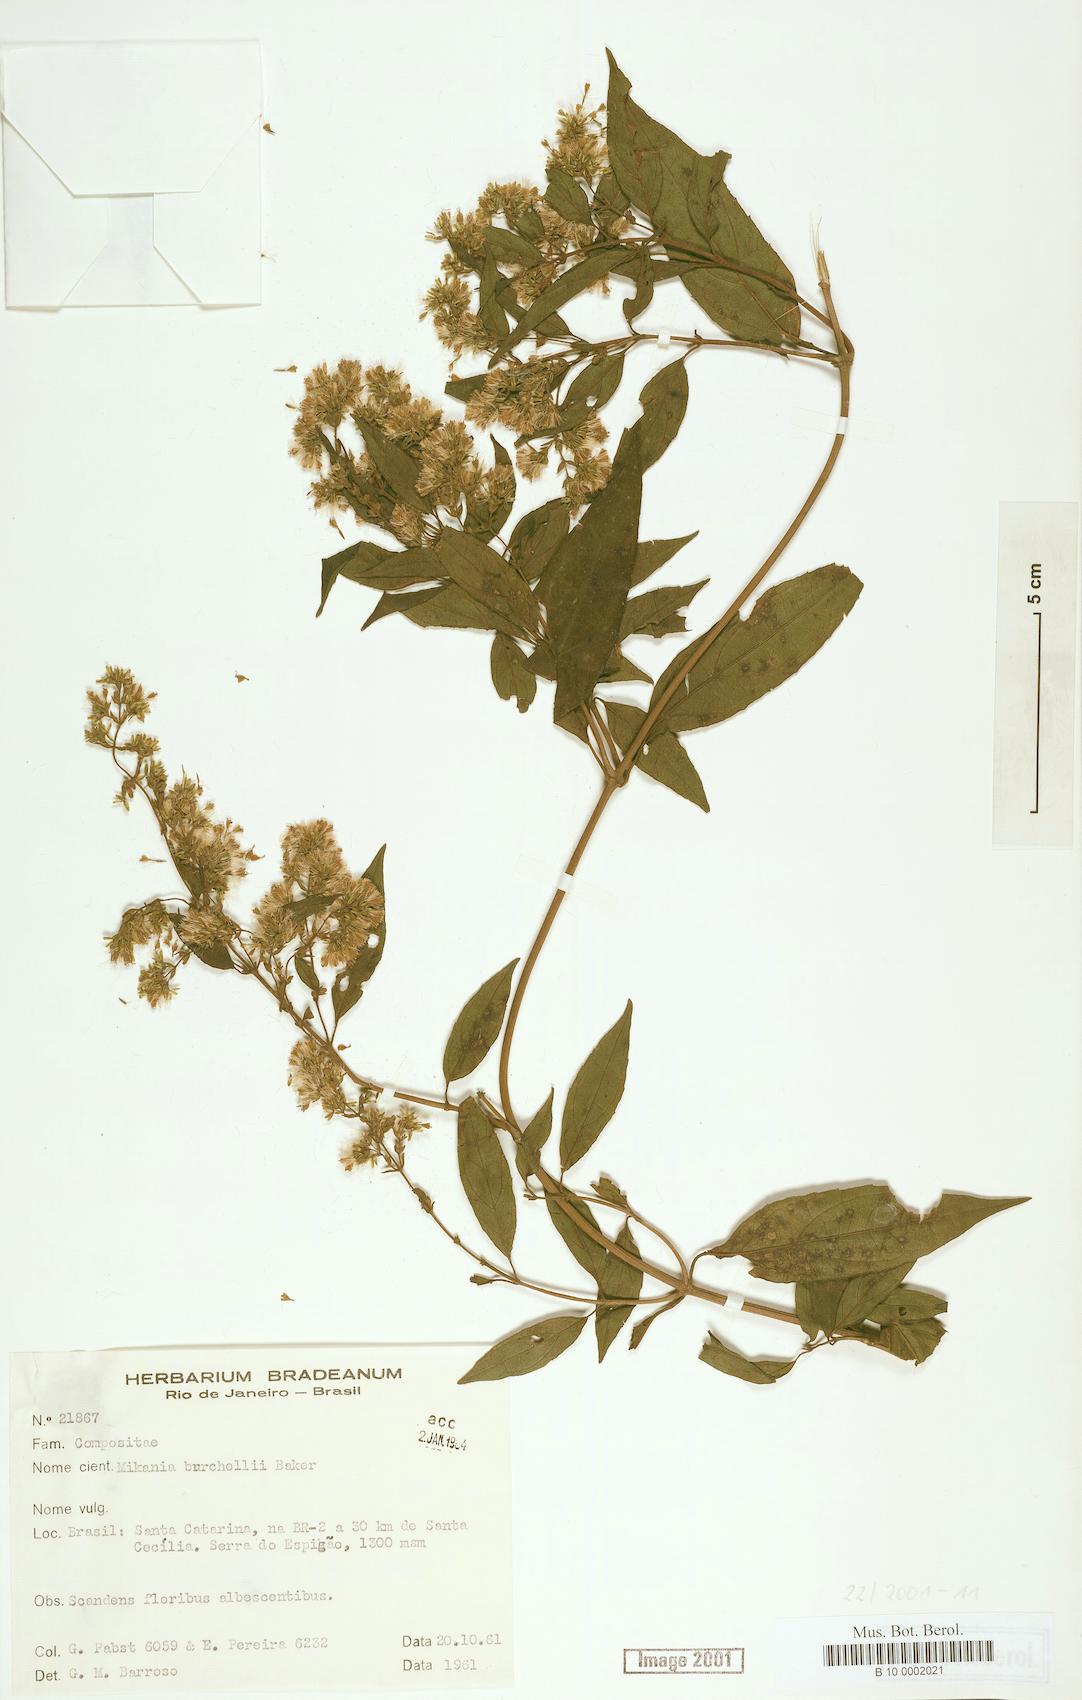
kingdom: Plantae
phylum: Tracheophyta
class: Magnoliopsida
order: Asterales
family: Asteraceae
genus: Mikania
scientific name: Mikania burchellii
